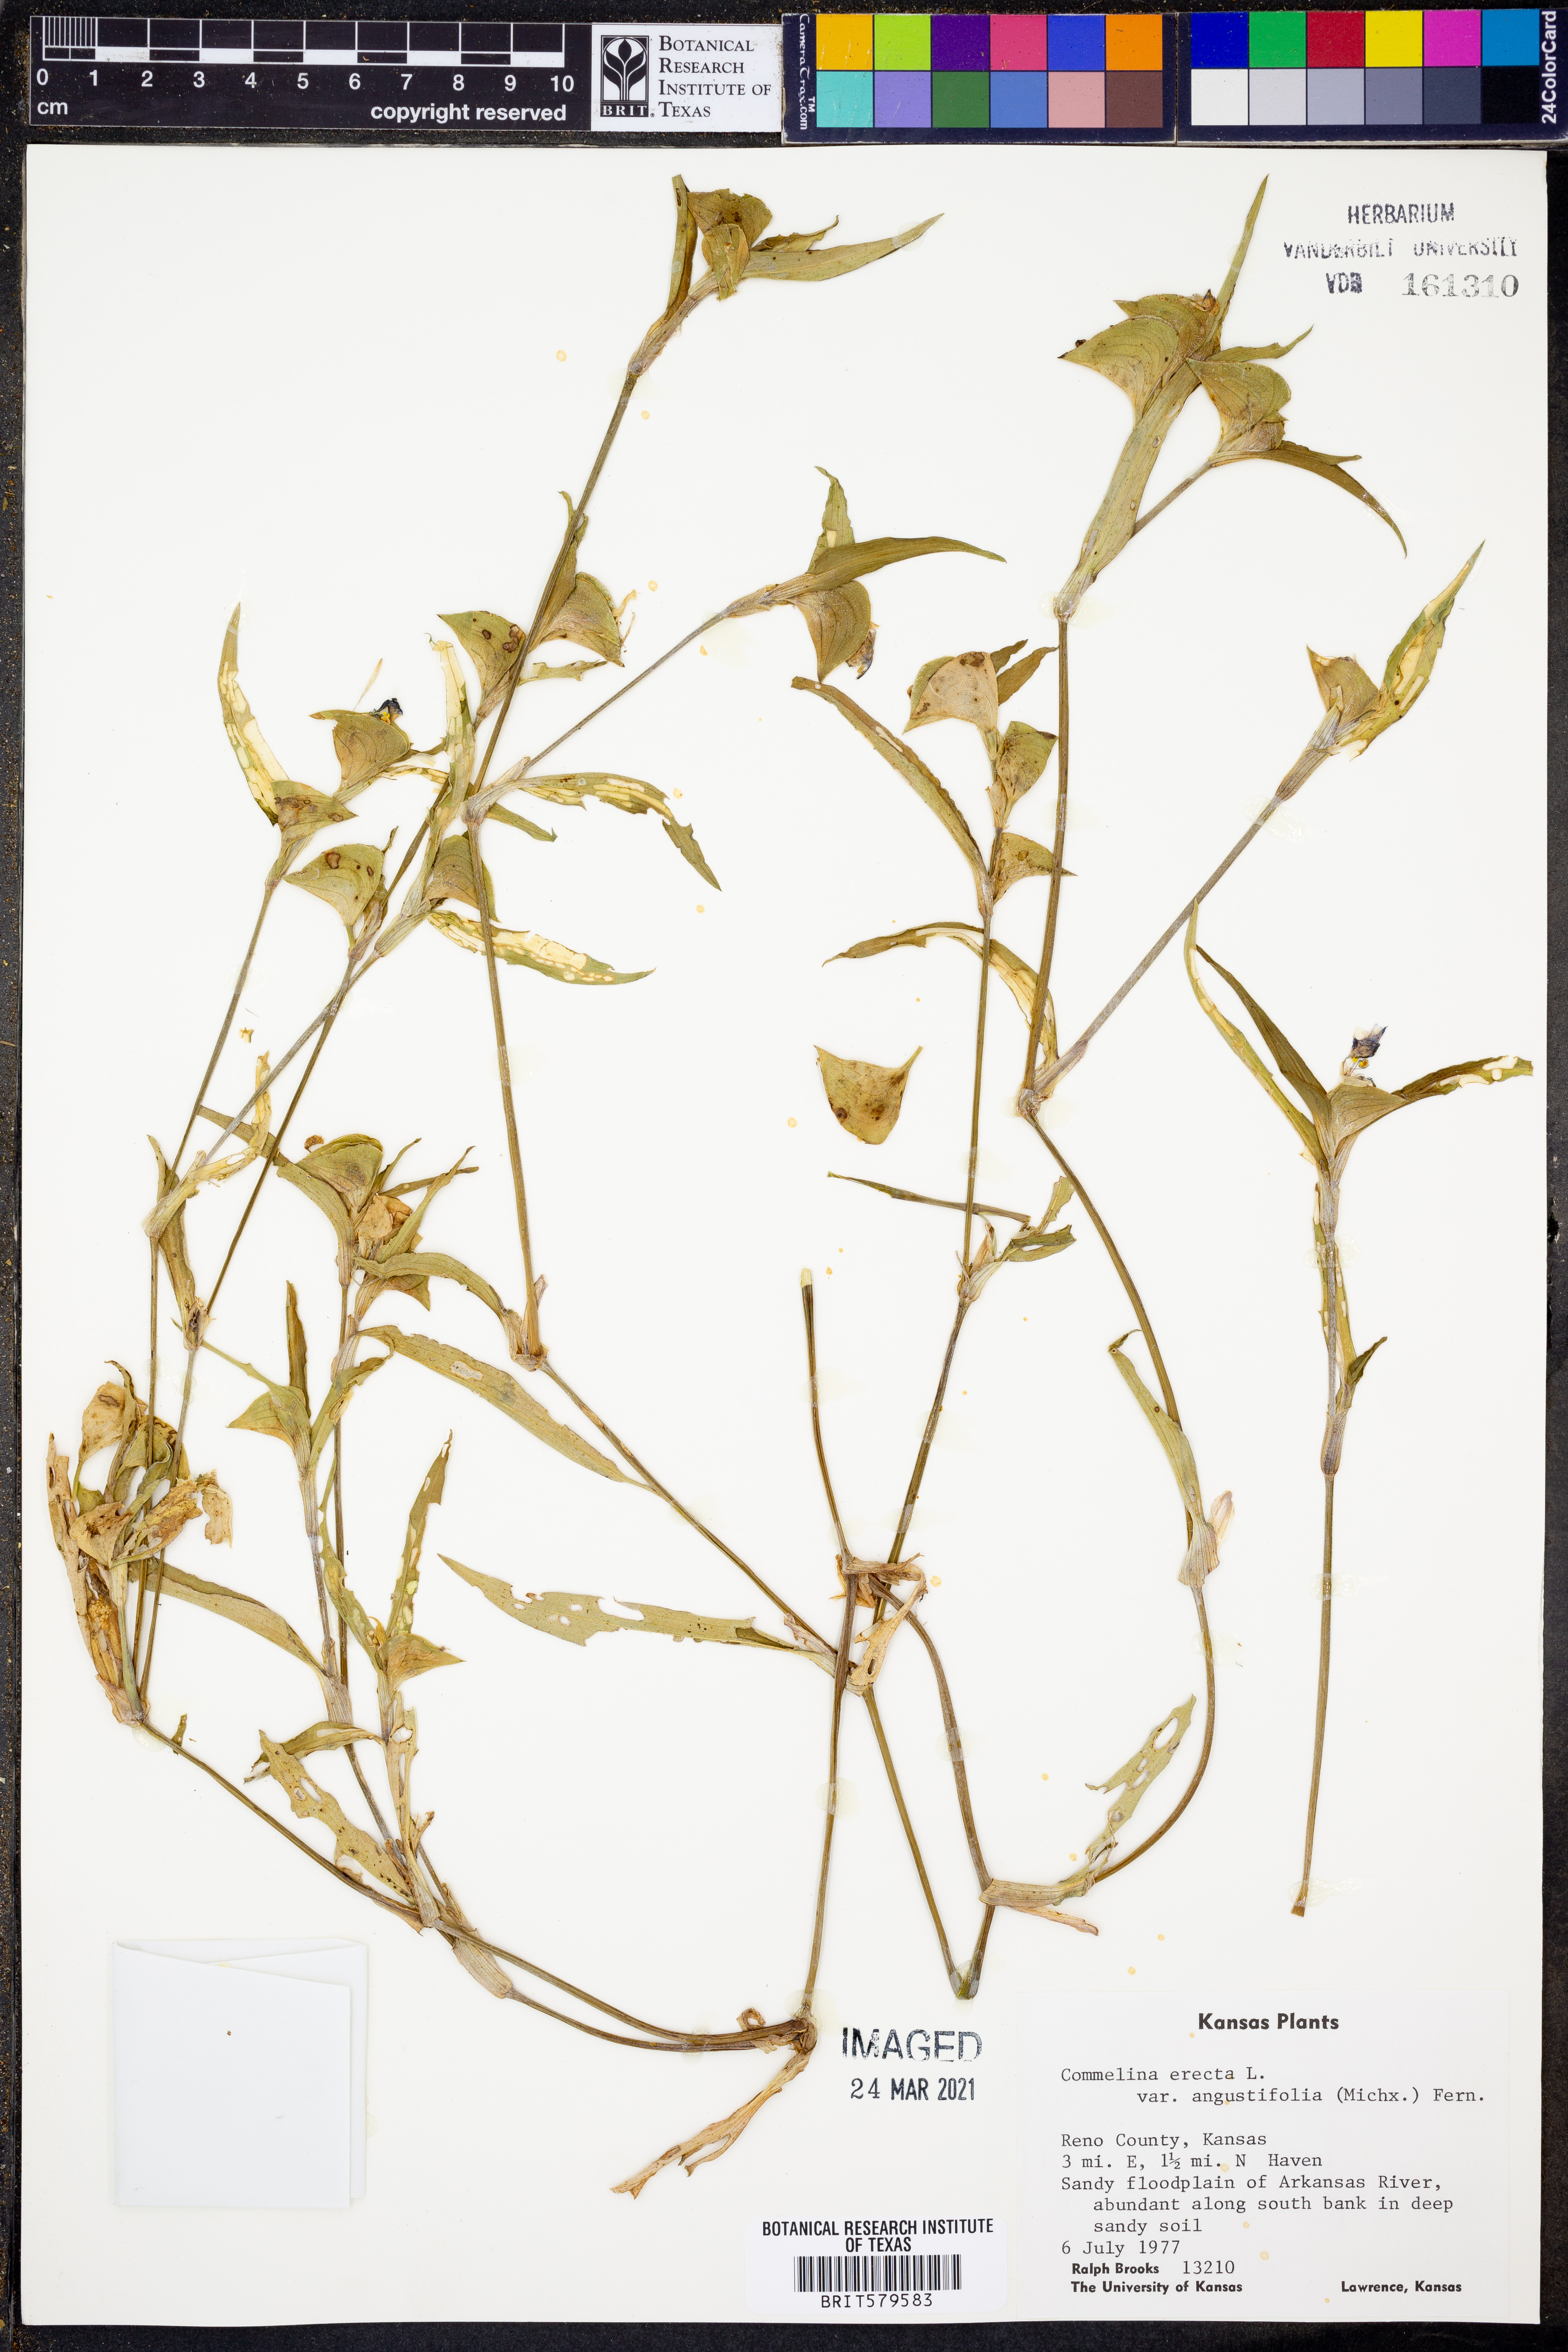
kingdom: Plantae
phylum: Tracheophyta
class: Liliopsida
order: Commelinales
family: Commelinaceae
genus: Commelina
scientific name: Commelina erecta
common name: Blousel blommetjie
